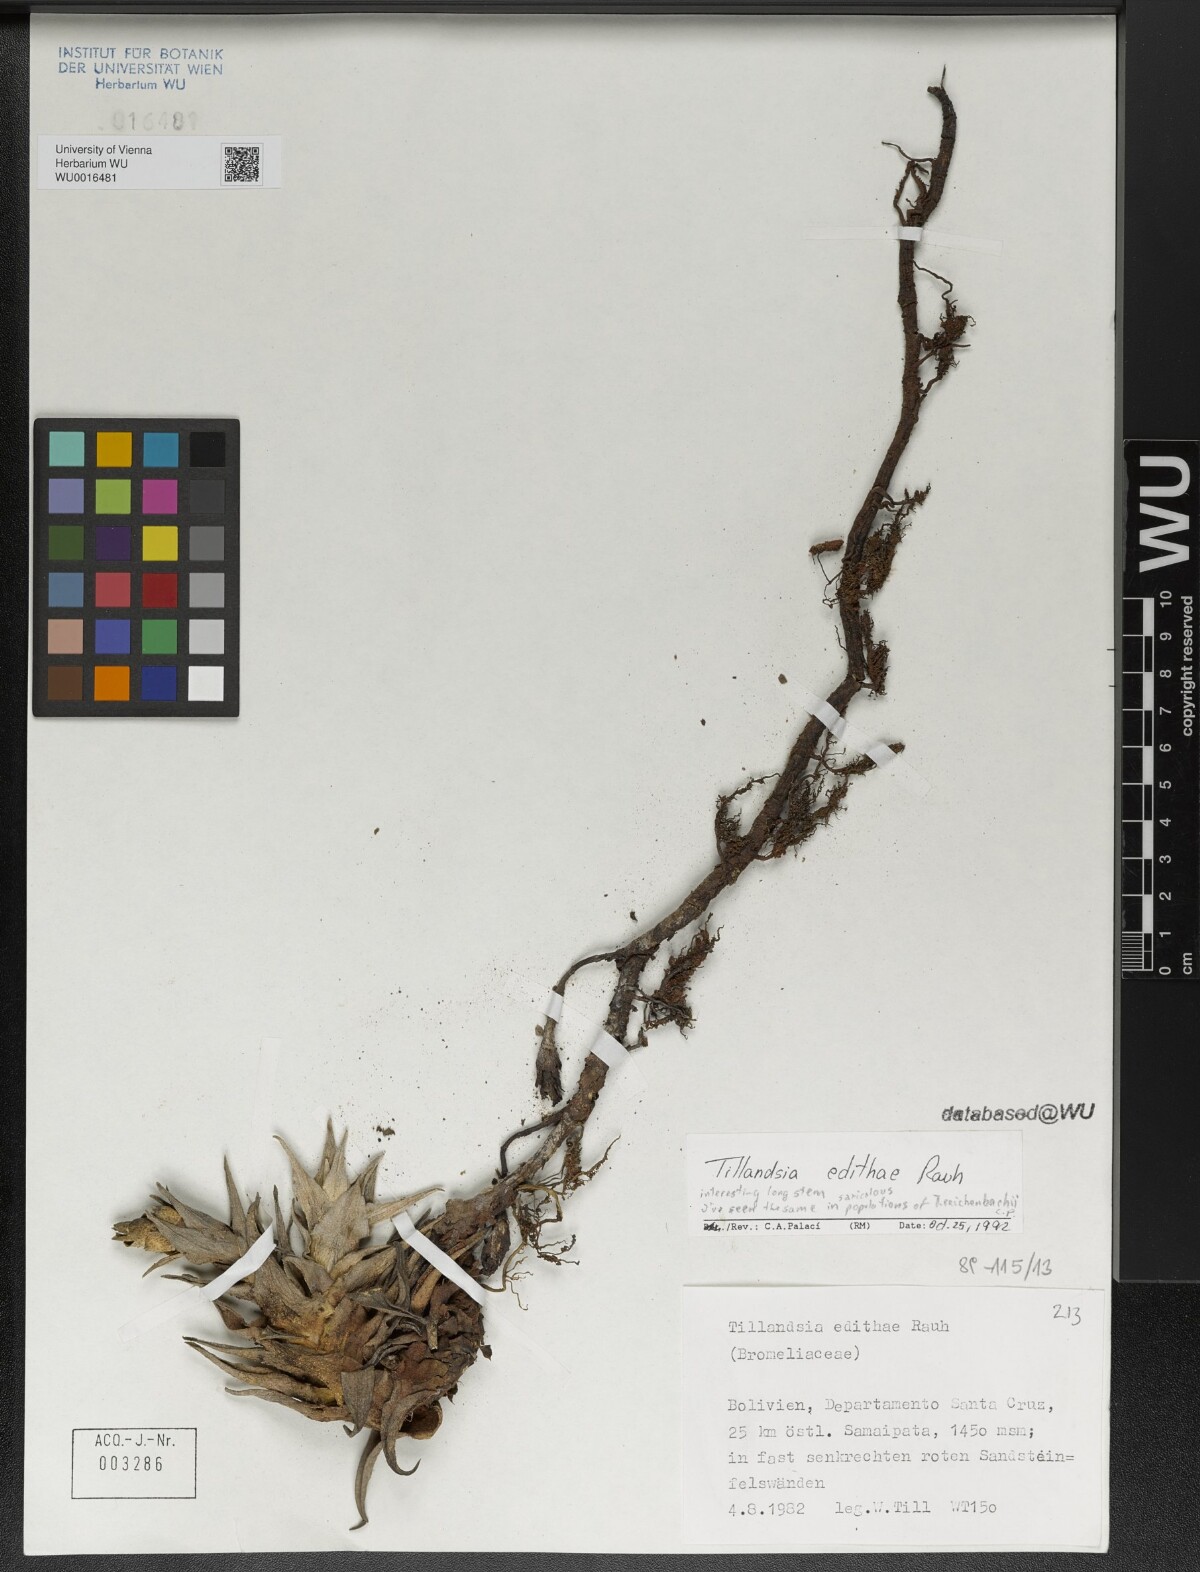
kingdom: Plantae
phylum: Tracheophyta
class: Liliopsida
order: Poales
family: Bromeliaceae
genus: Tillandsia
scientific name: Tillandsia edithae
